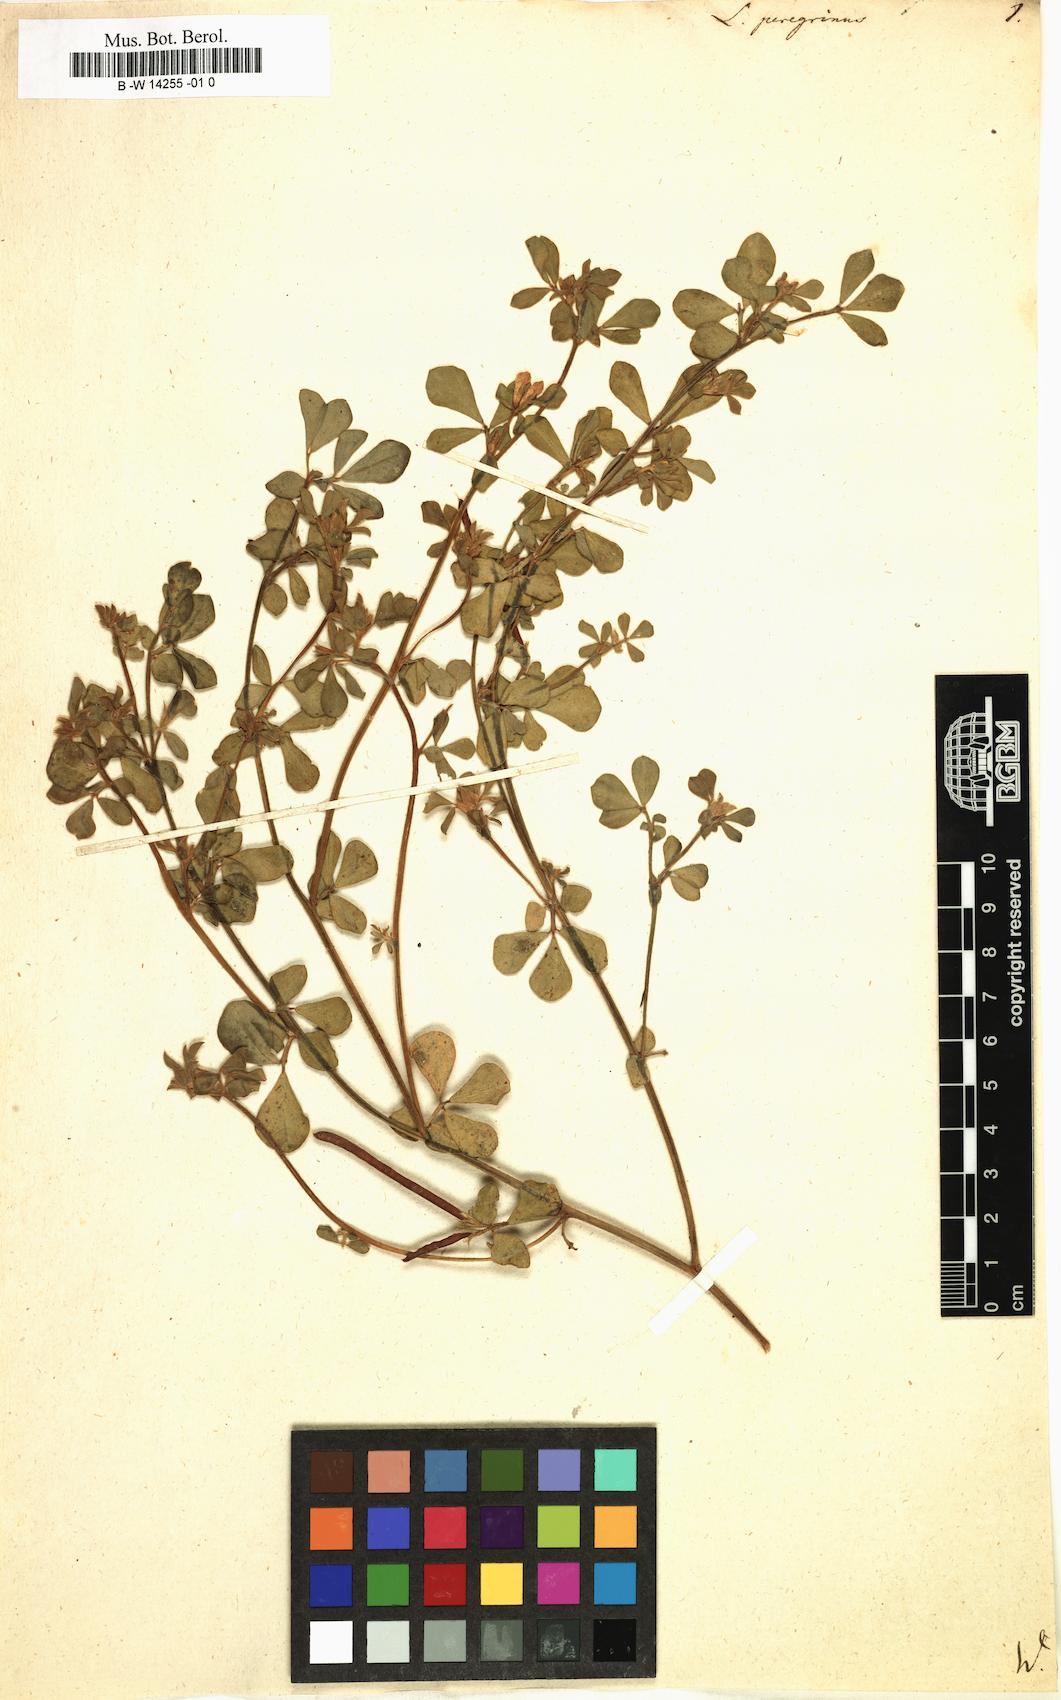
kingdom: Plantae
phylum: Tracheophyta
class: Magnoliopsida
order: Fabales
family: Fabaceae
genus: Lotus
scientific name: Lotus peregrinus
